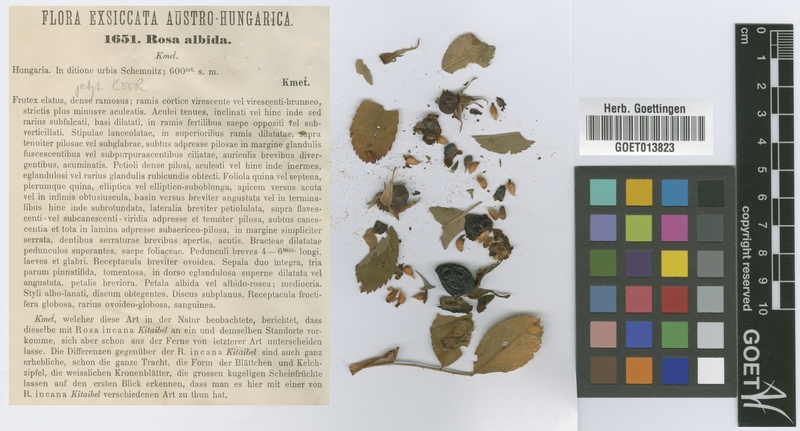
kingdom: Plantae
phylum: Tracheophyta
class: Magnoliopsida
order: Rosales
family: Rosaceae
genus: Rosa
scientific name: Rosa albida
